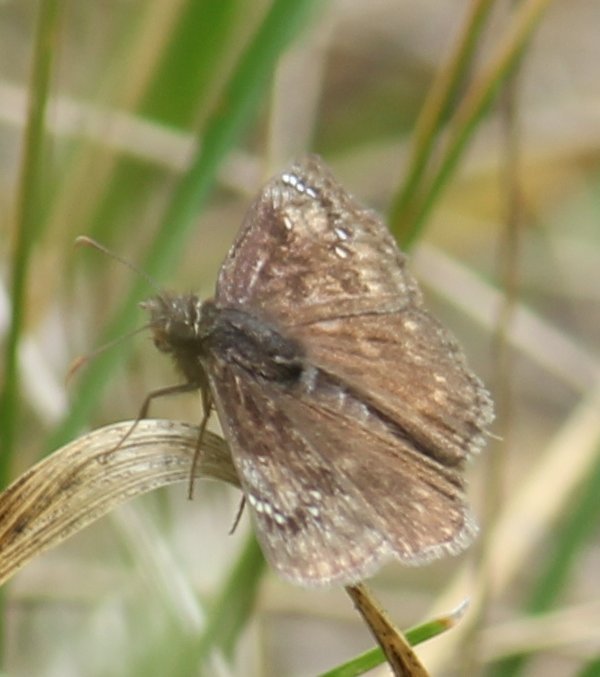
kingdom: Animalia
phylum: Arthropoda
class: Insecta
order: Lepidoptera
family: Hesperiidae
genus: Erynnis
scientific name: Erynnis
